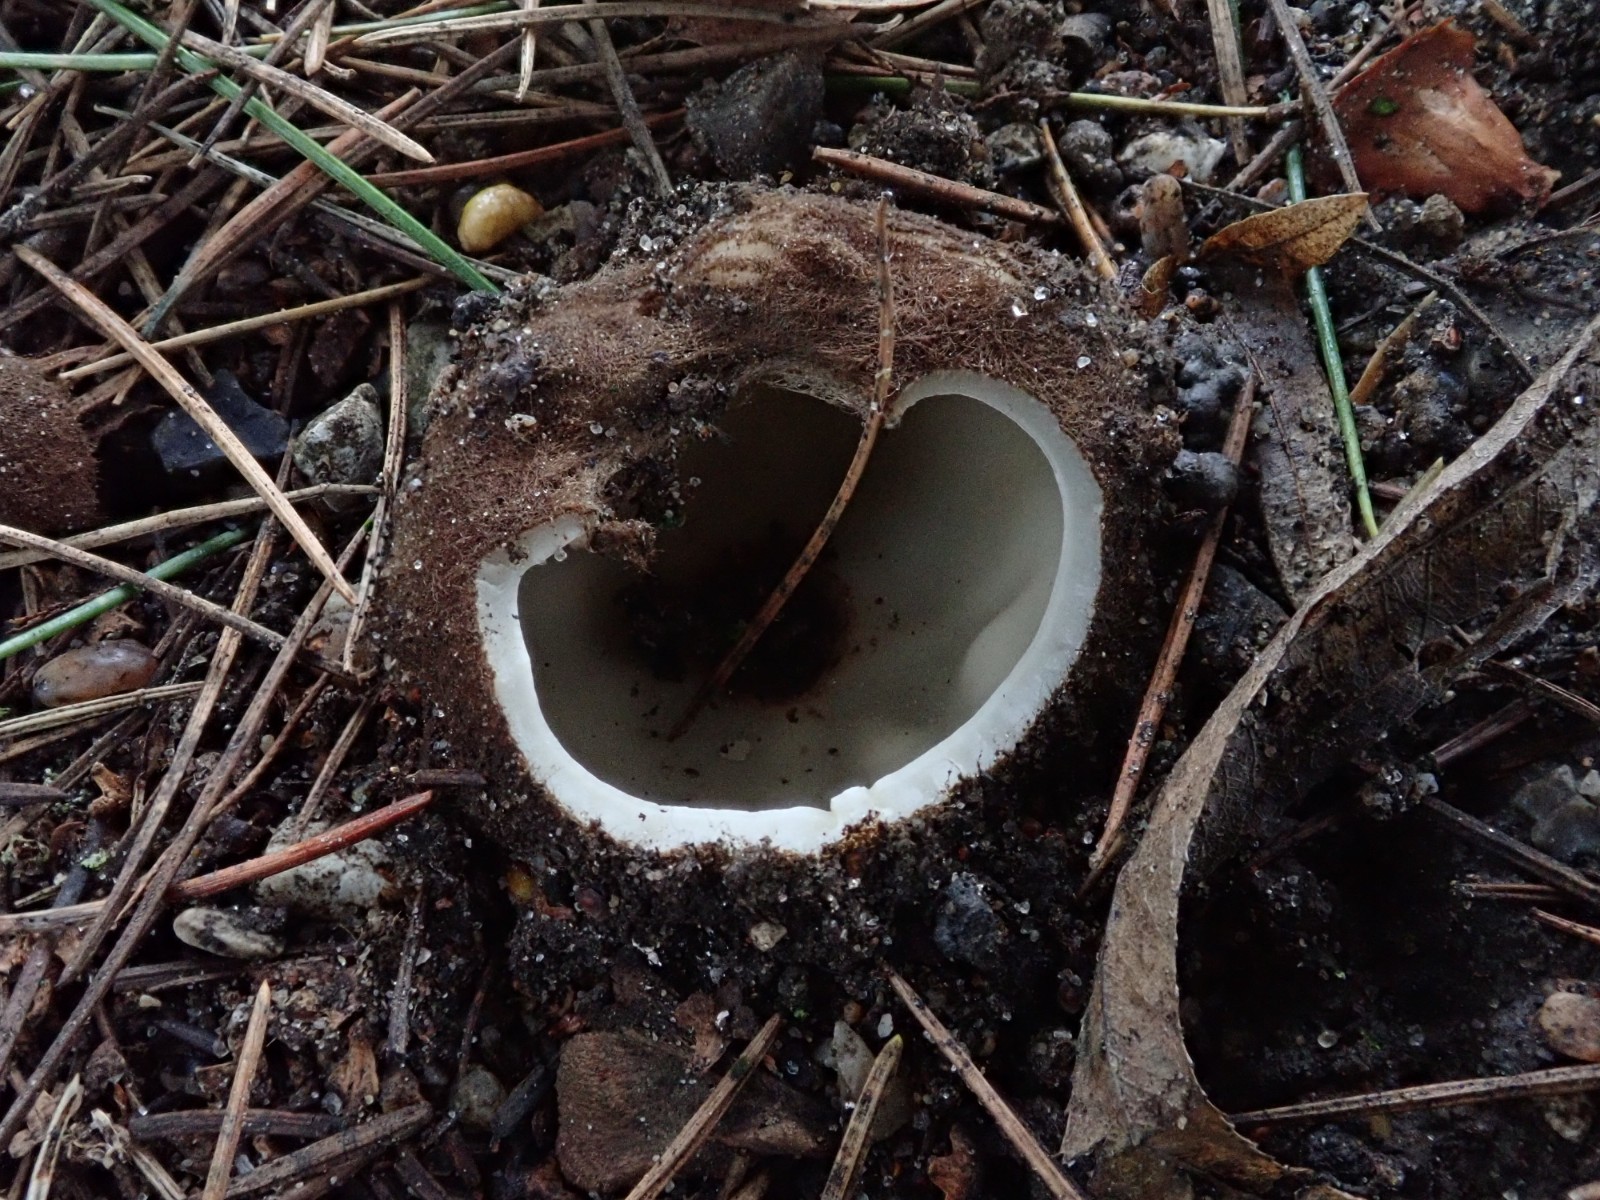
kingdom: Fungi
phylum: Ascomycota
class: Pezizomycetes
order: Pezizales
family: Pyronemataceae
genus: Geopora
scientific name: Geopora sumneriana
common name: vår-jordbæger
